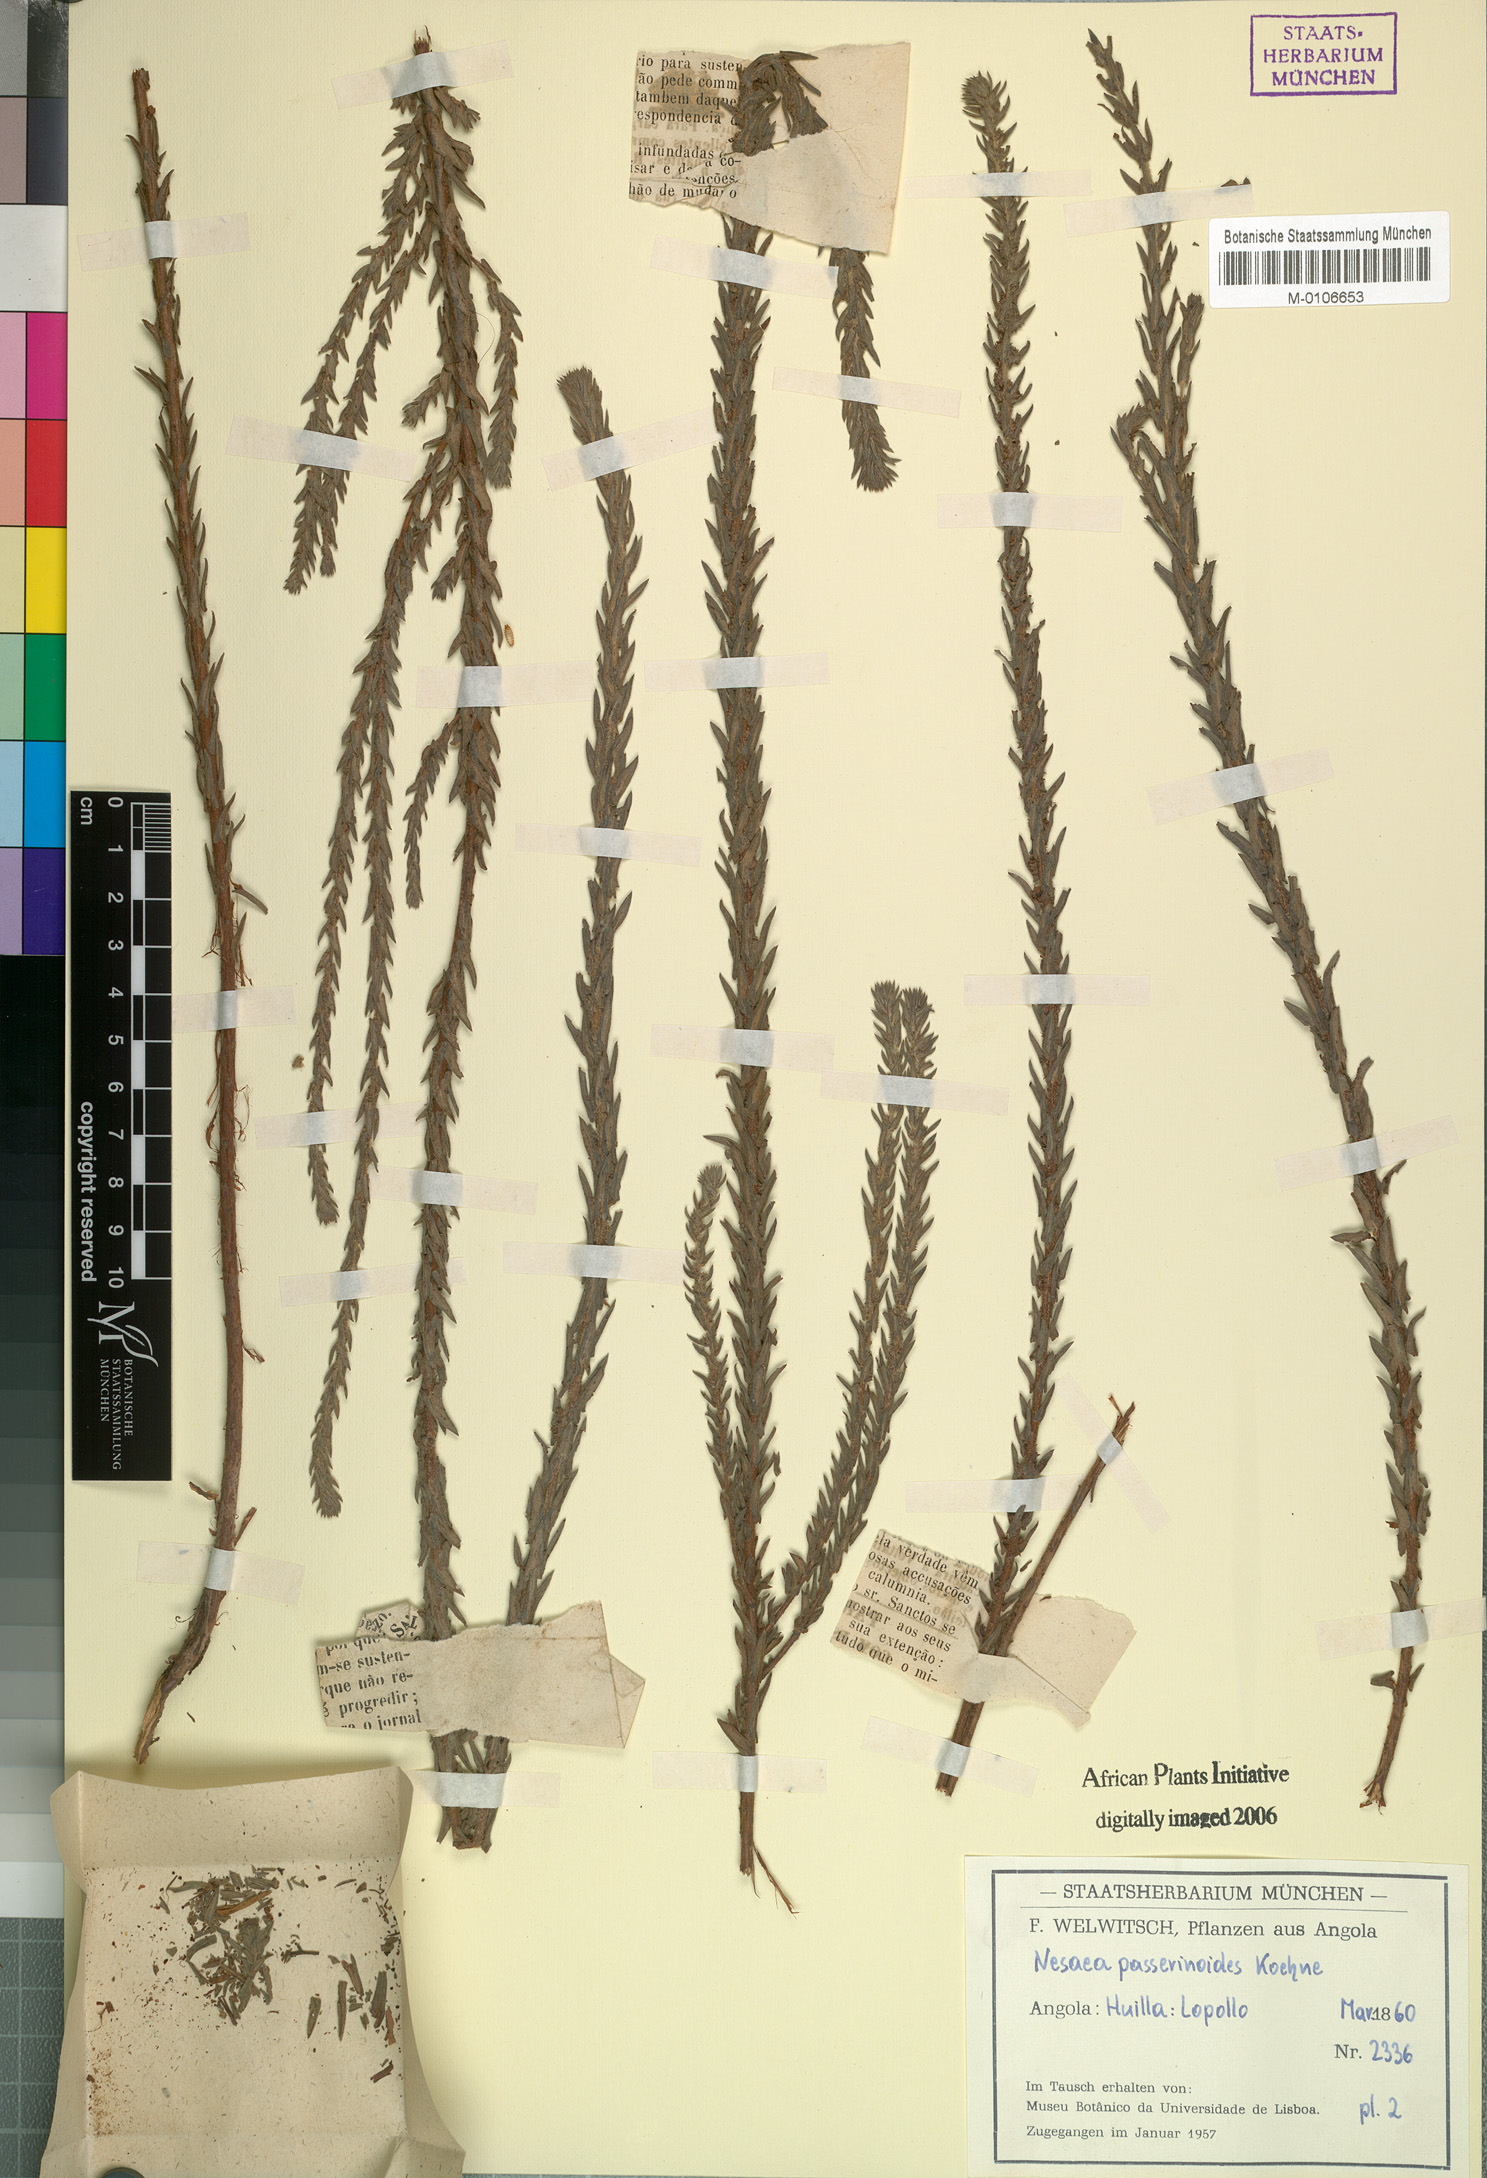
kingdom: Plantae
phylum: Tracheophyta
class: Magnoliopsida
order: Myrtales
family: Lythraceae
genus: Ammannia
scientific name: Ammannia passerinoides
